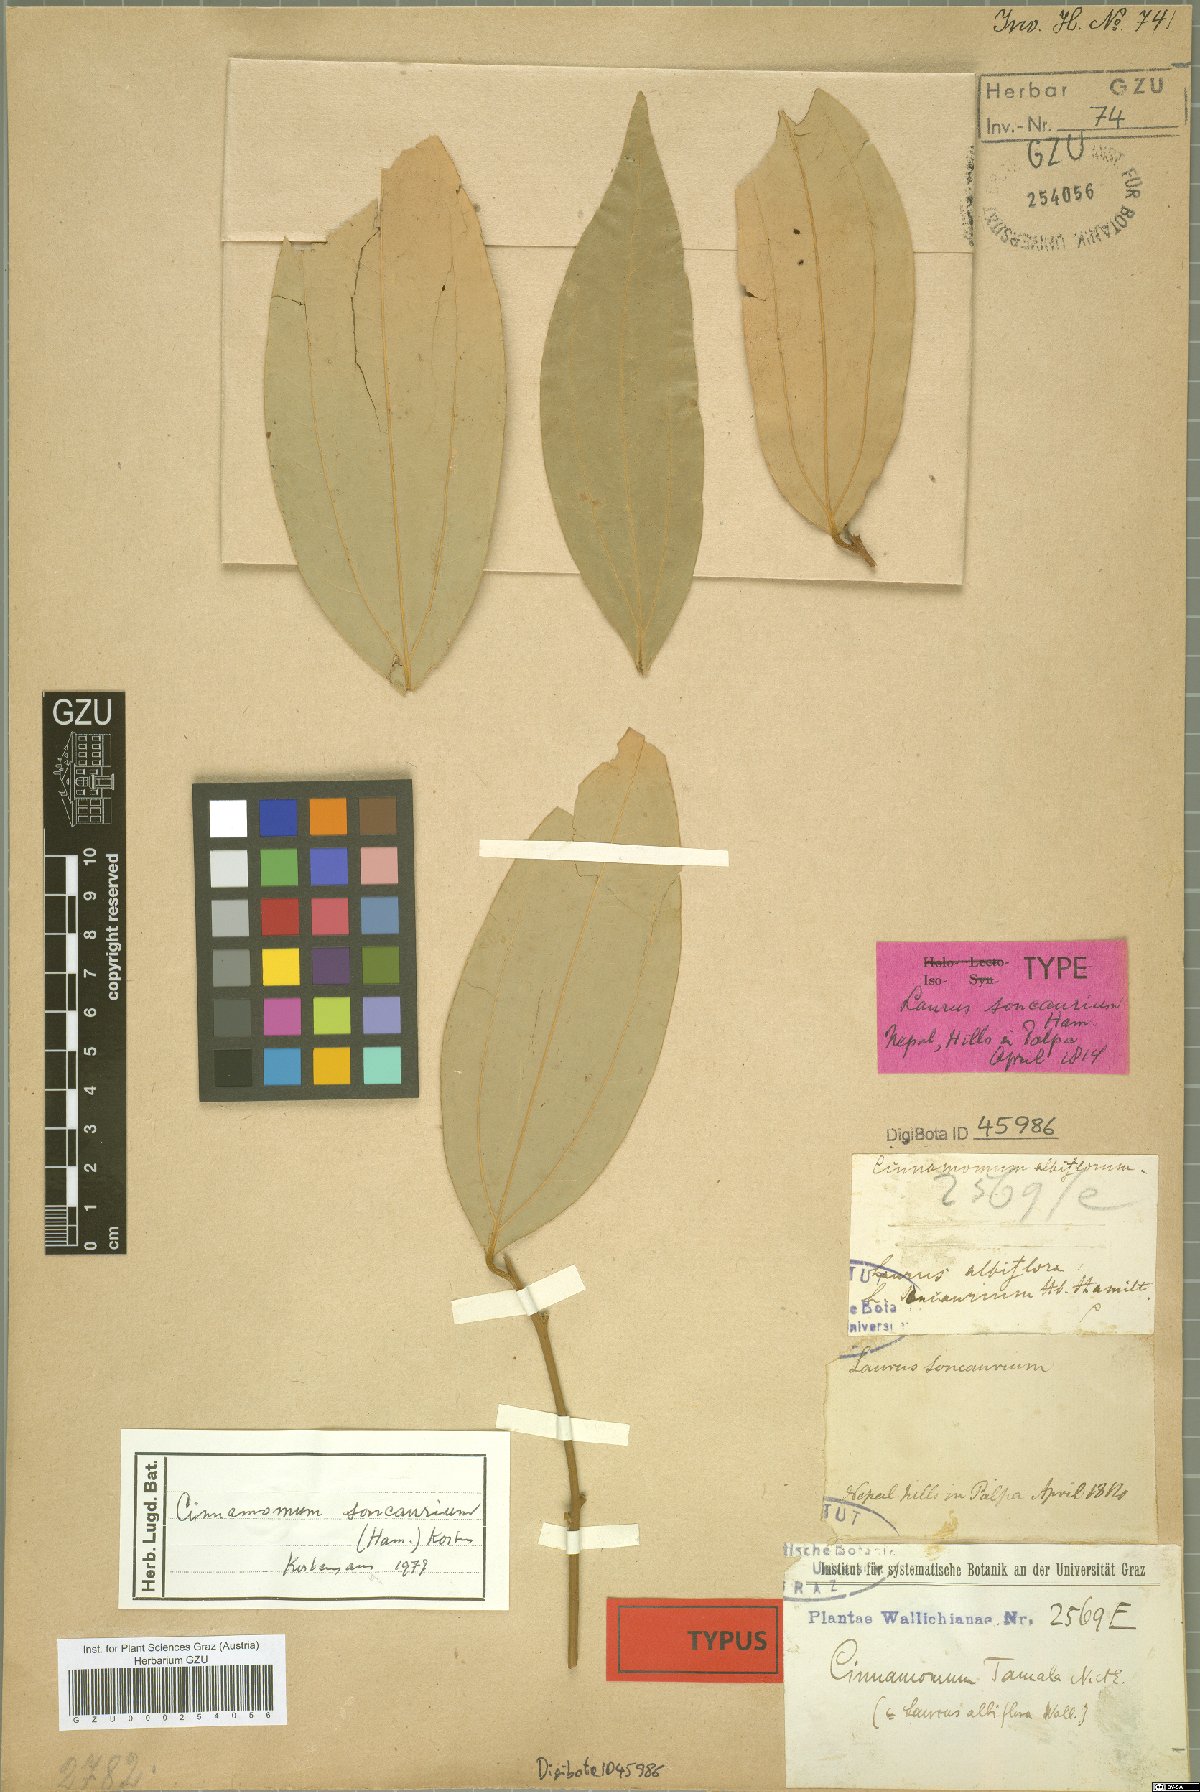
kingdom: Plantae
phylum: Tracheophyta
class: Magnoliopsida
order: Laurales
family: Lauraceae
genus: Cinnamomum
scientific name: Cinnamomum bejolghota
